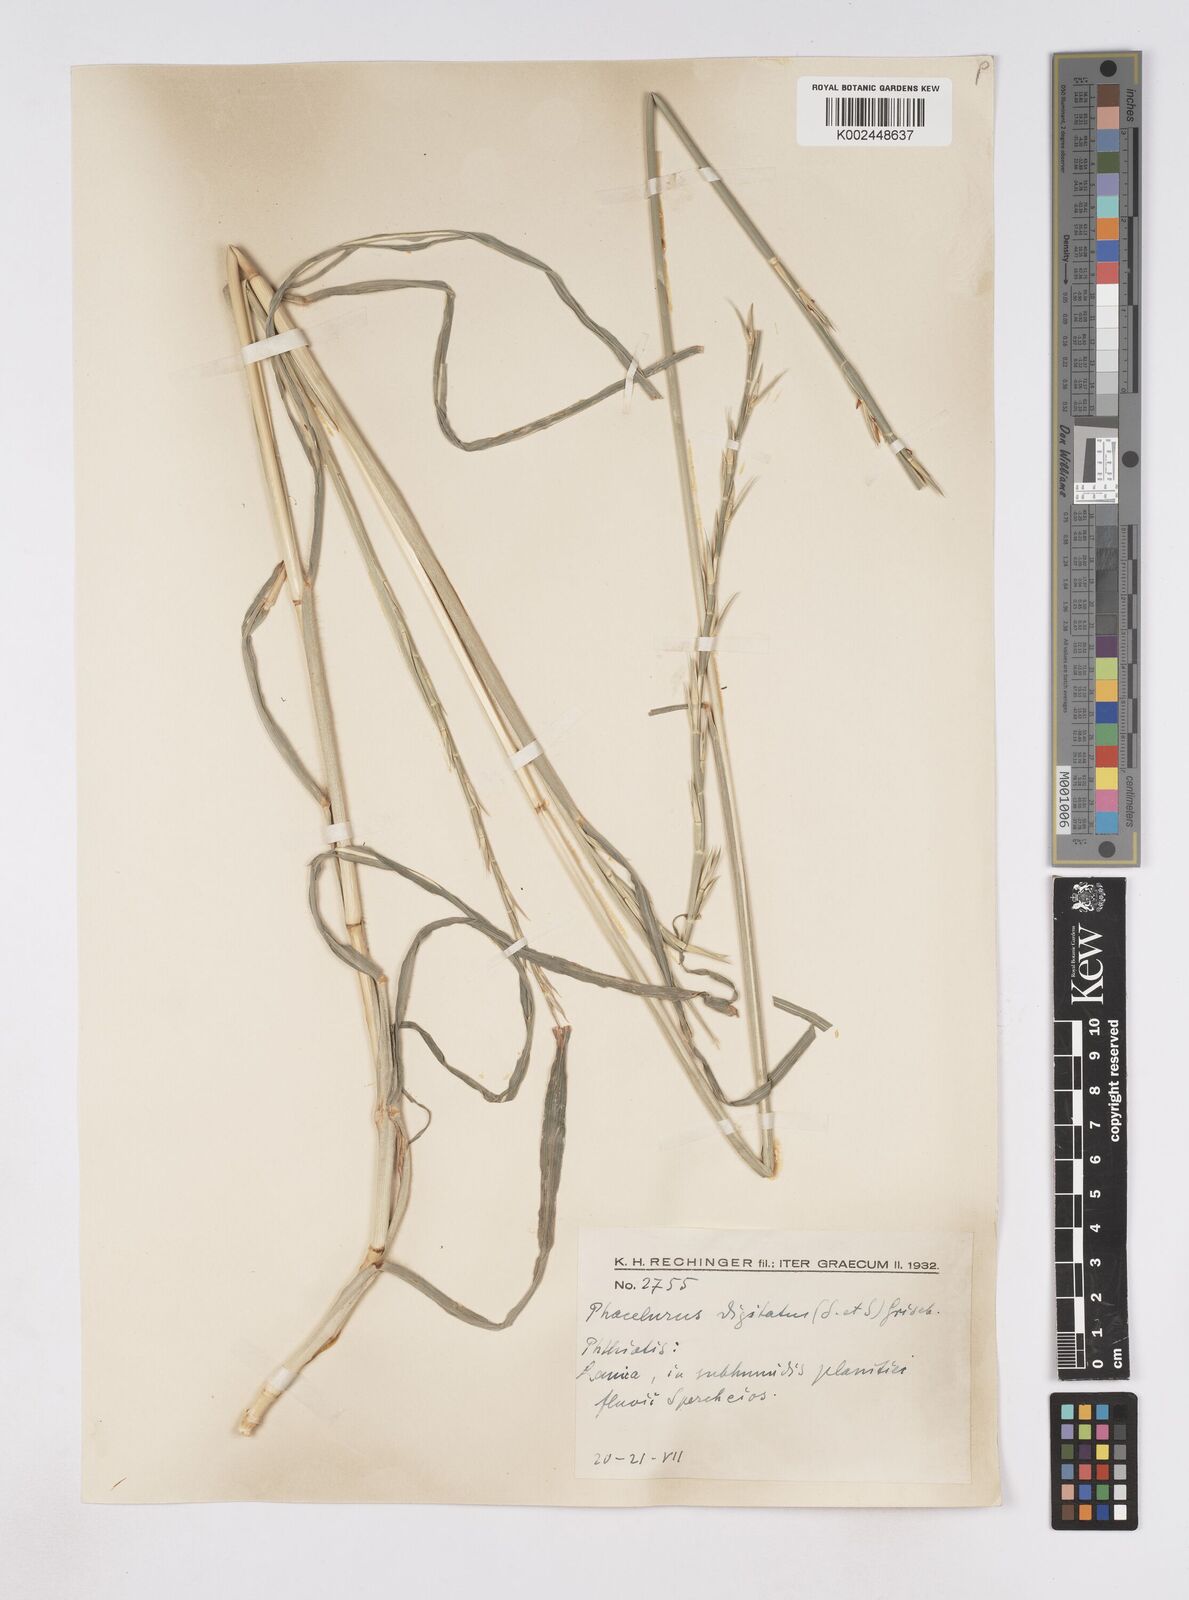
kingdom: Plantae
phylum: Tracheophyta
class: Liliopsida
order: Poales
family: Poaceae
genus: Phacelurus
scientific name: Phacelurus digitatus
